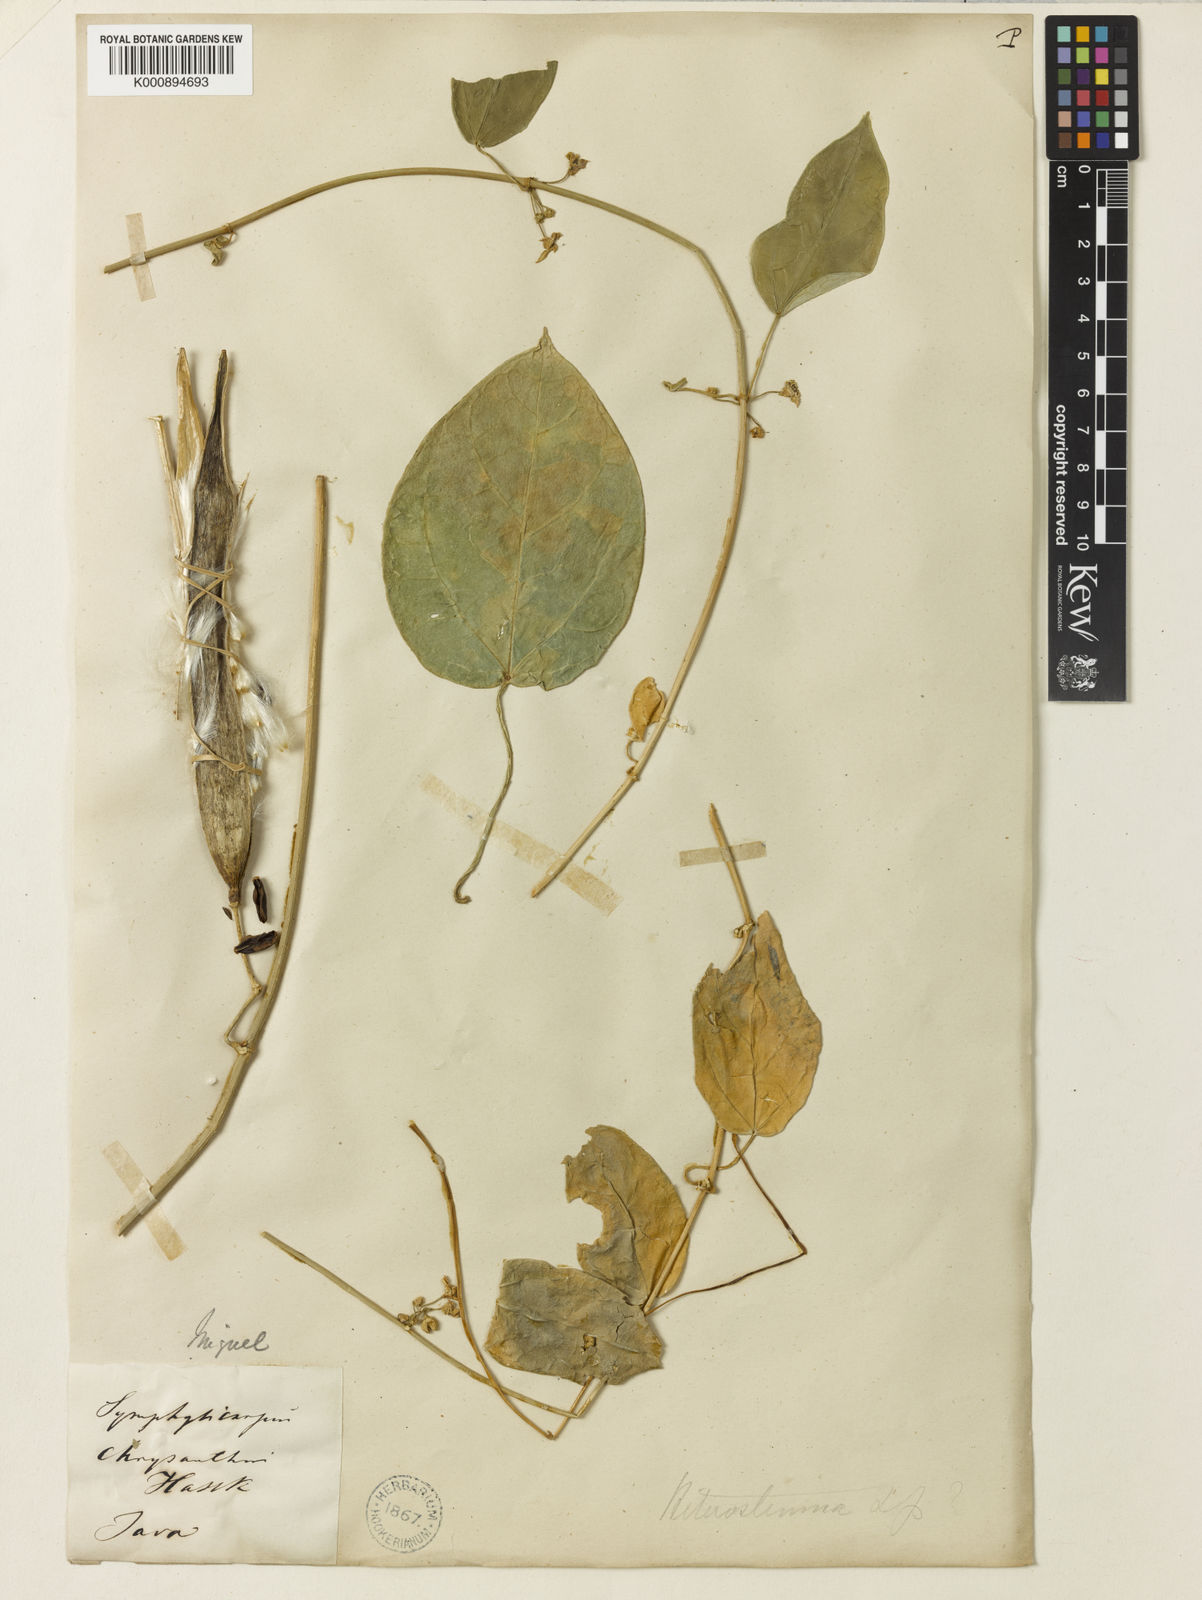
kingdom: Plantae
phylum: Tracheophyta
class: Magnoliopsida
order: Gentianales
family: Apocynaceae
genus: Heterostemma
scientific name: Heterostemma acuminatum
